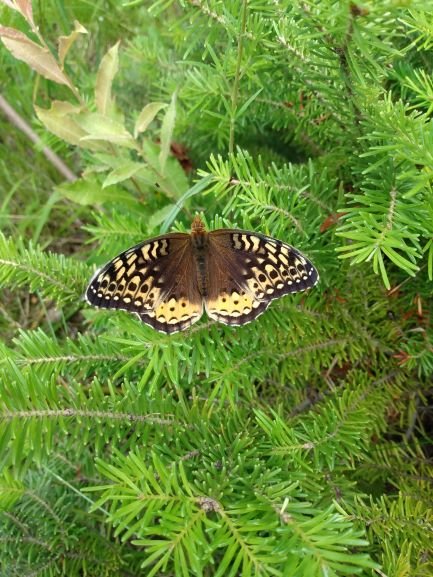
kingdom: Animalia
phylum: Arthropoda
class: Insecta
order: Lepidoptera
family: Nymphalidae
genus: Speyeria
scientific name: Speyeria cybele
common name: Great Spangled Fritillary
